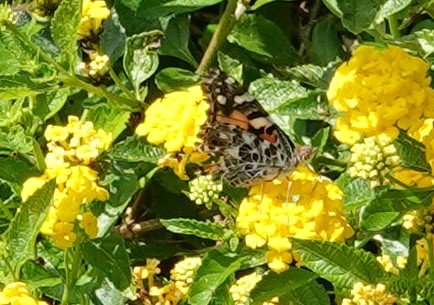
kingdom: Animalia
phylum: Arthropoda
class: Insecta
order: Lepidoptera
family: Nymphalidae
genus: Vanessa
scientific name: Vanessa cardui
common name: Painted Lady
